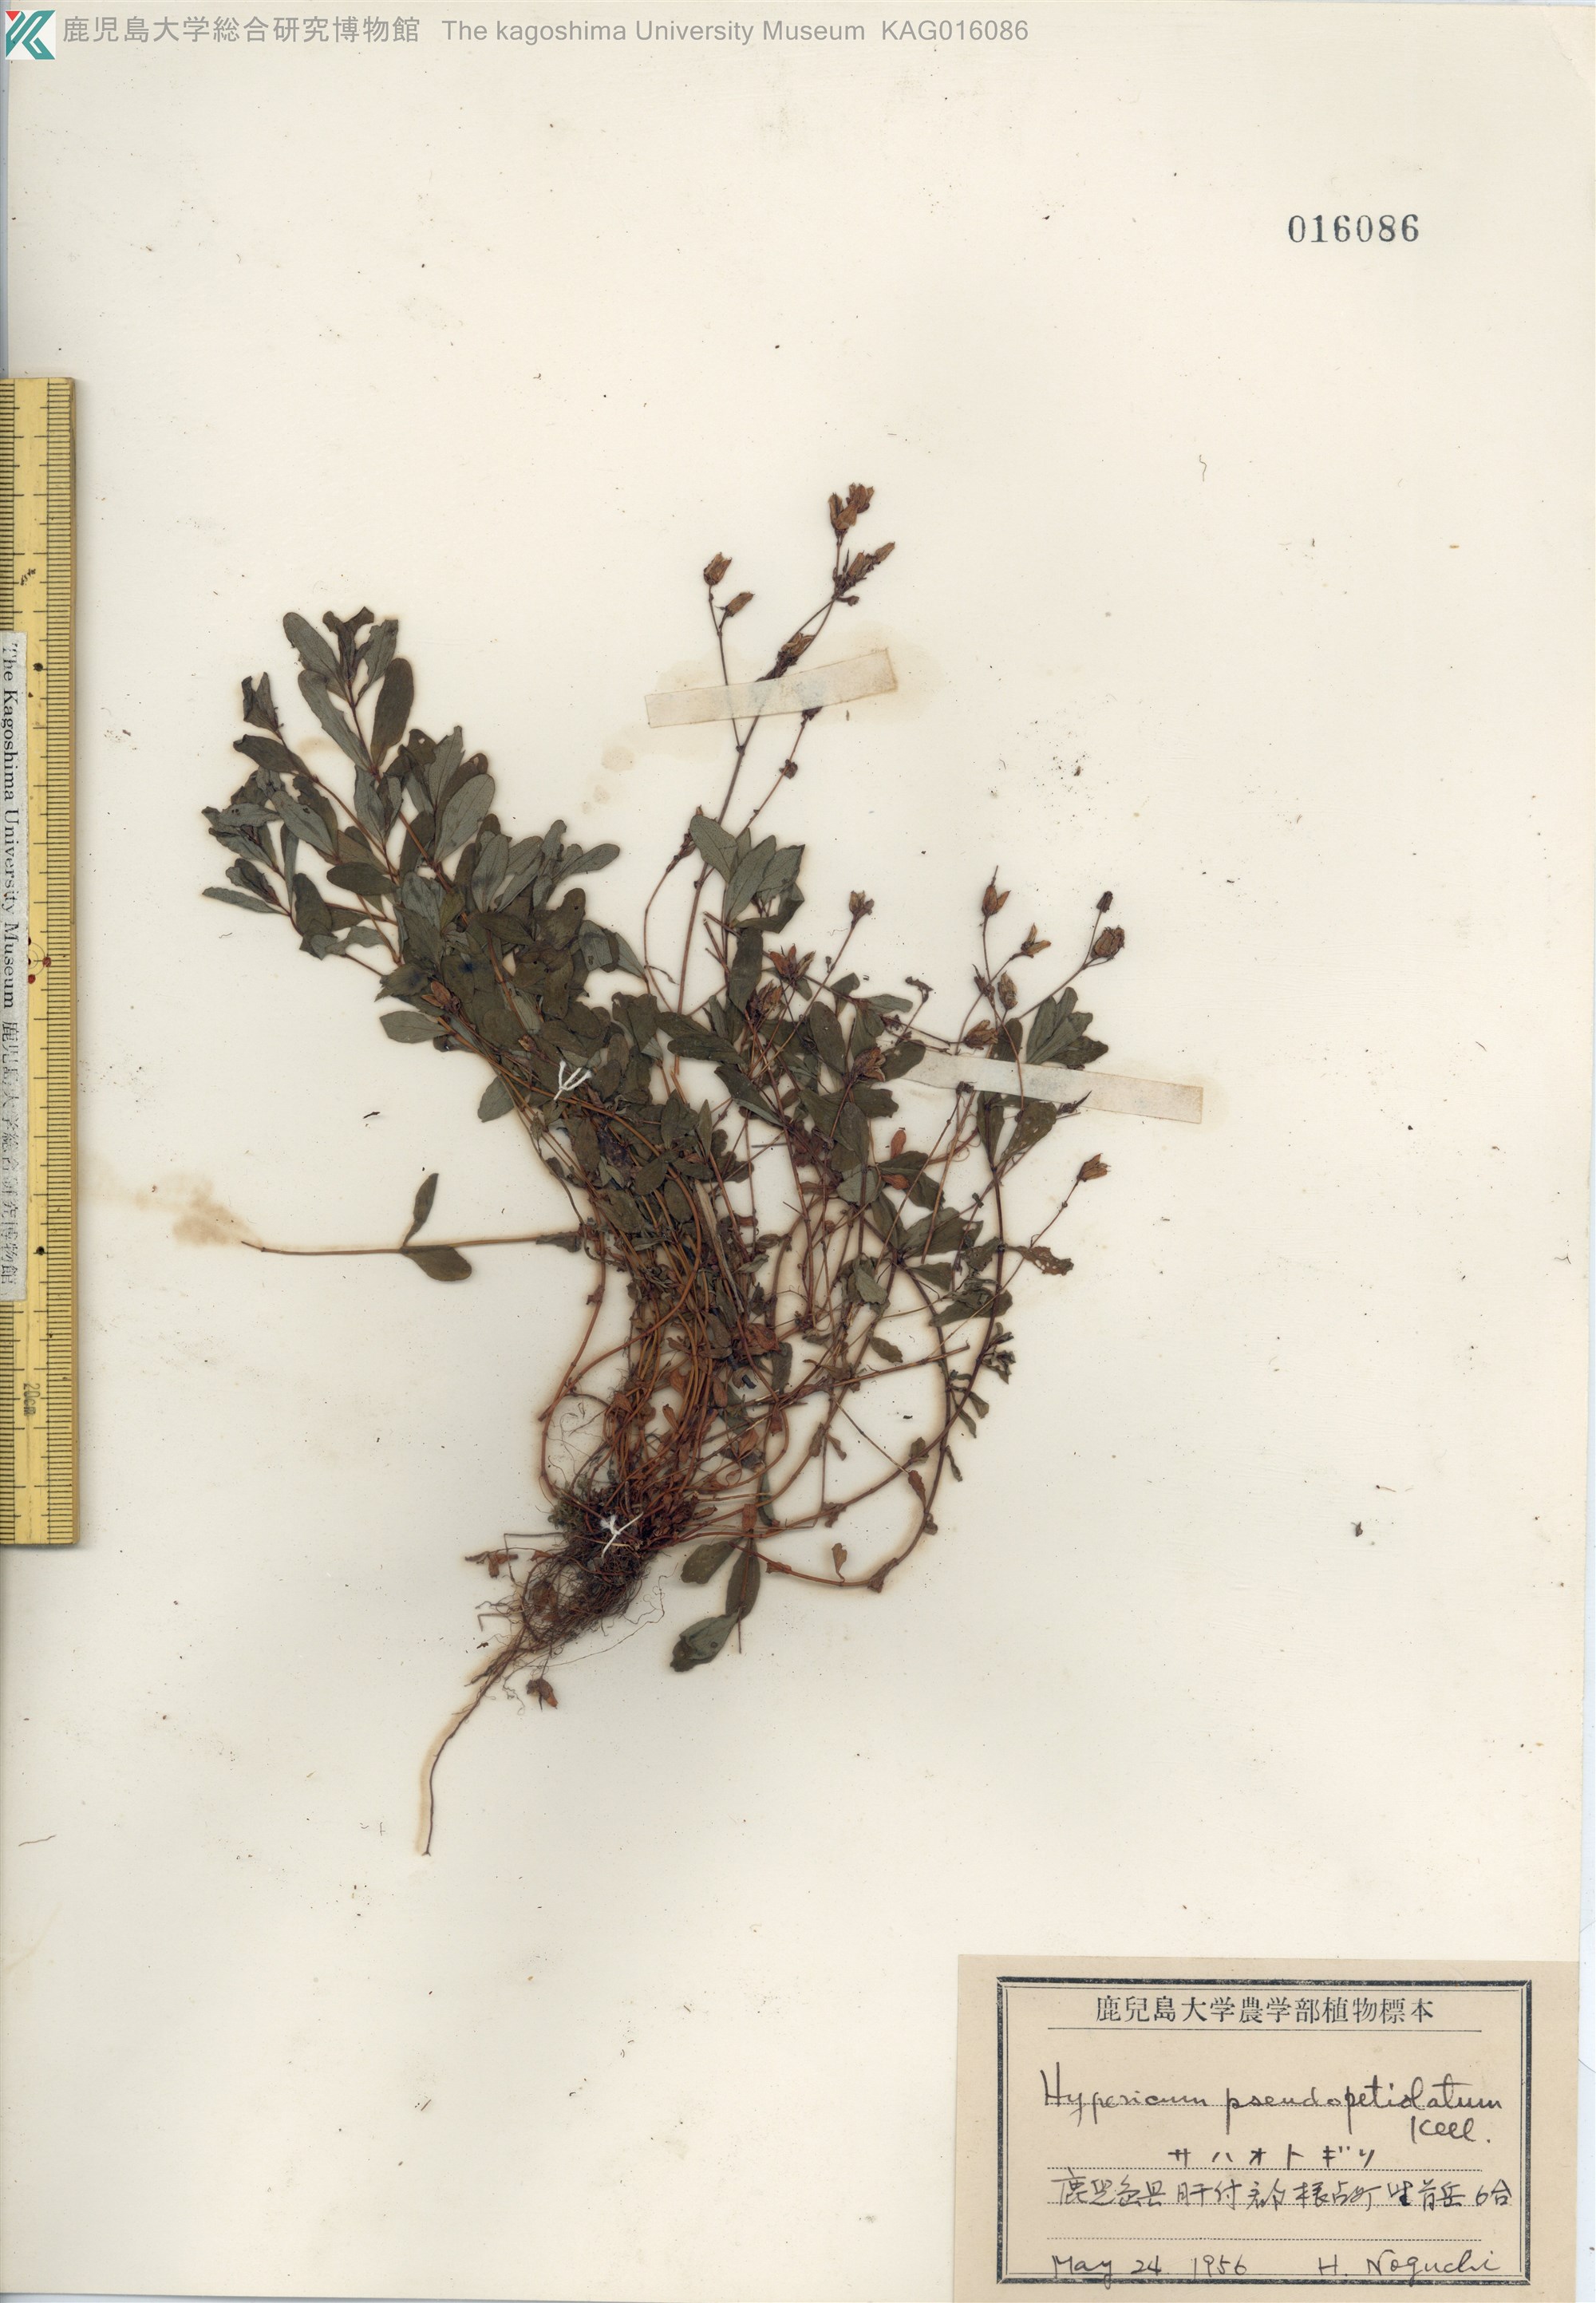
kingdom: Plantae
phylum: Tracheophyta
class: Magnoliopsida
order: Malpighiales
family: Hypericaceae
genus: Hypericum
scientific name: Hypericum pseudopetiolatum
